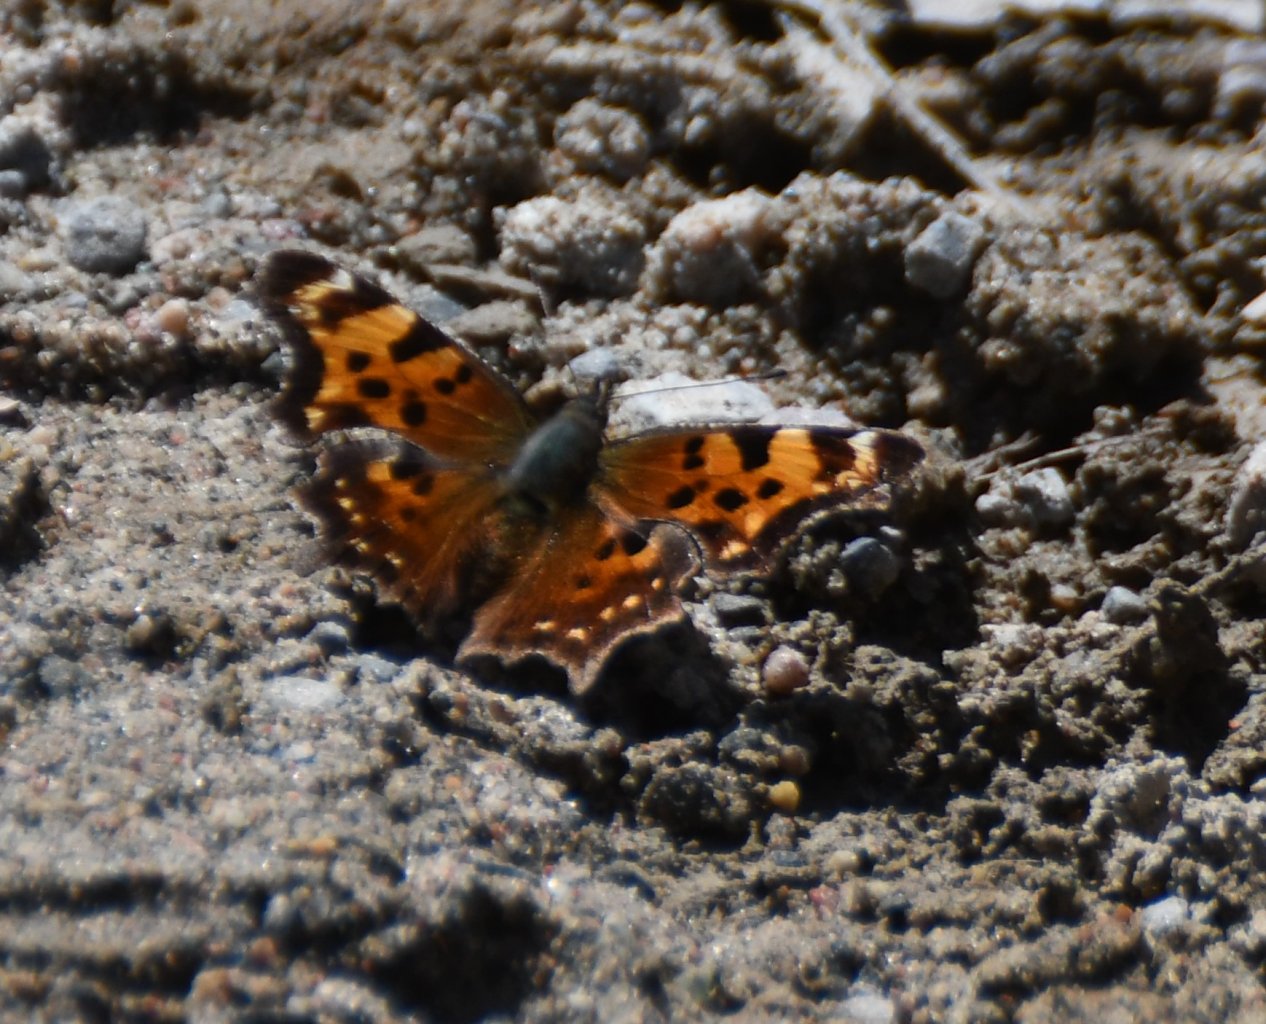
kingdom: Animalia
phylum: Arthropoda
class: Insecta
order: Lepidoptera
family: Nymphalidae
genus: Polygonia
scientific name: Polygonia faunus
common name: Green Comma
